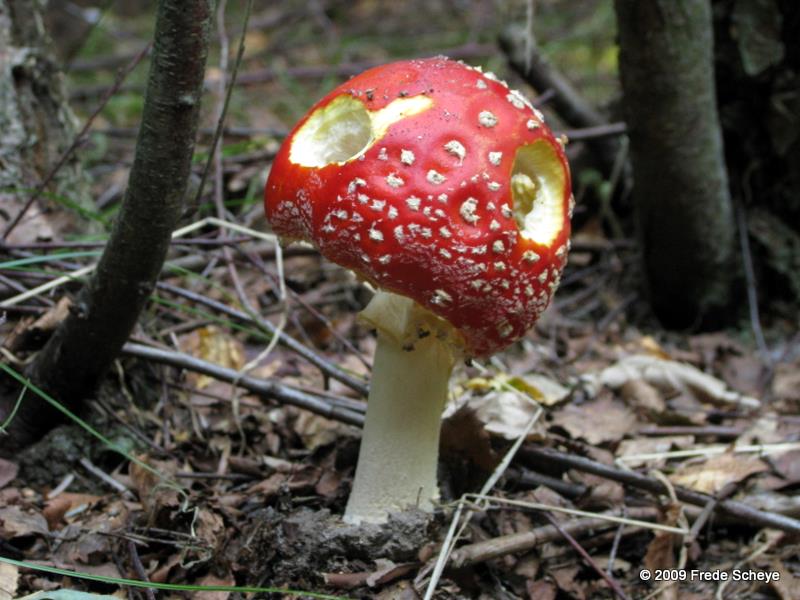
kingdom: Fungi
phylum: Basidiomycota
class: Agaricomycetes
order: Agaricales
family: Amanitaceae
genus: Amanita
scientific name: Amanita muscaria
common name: rød fluesvamp
